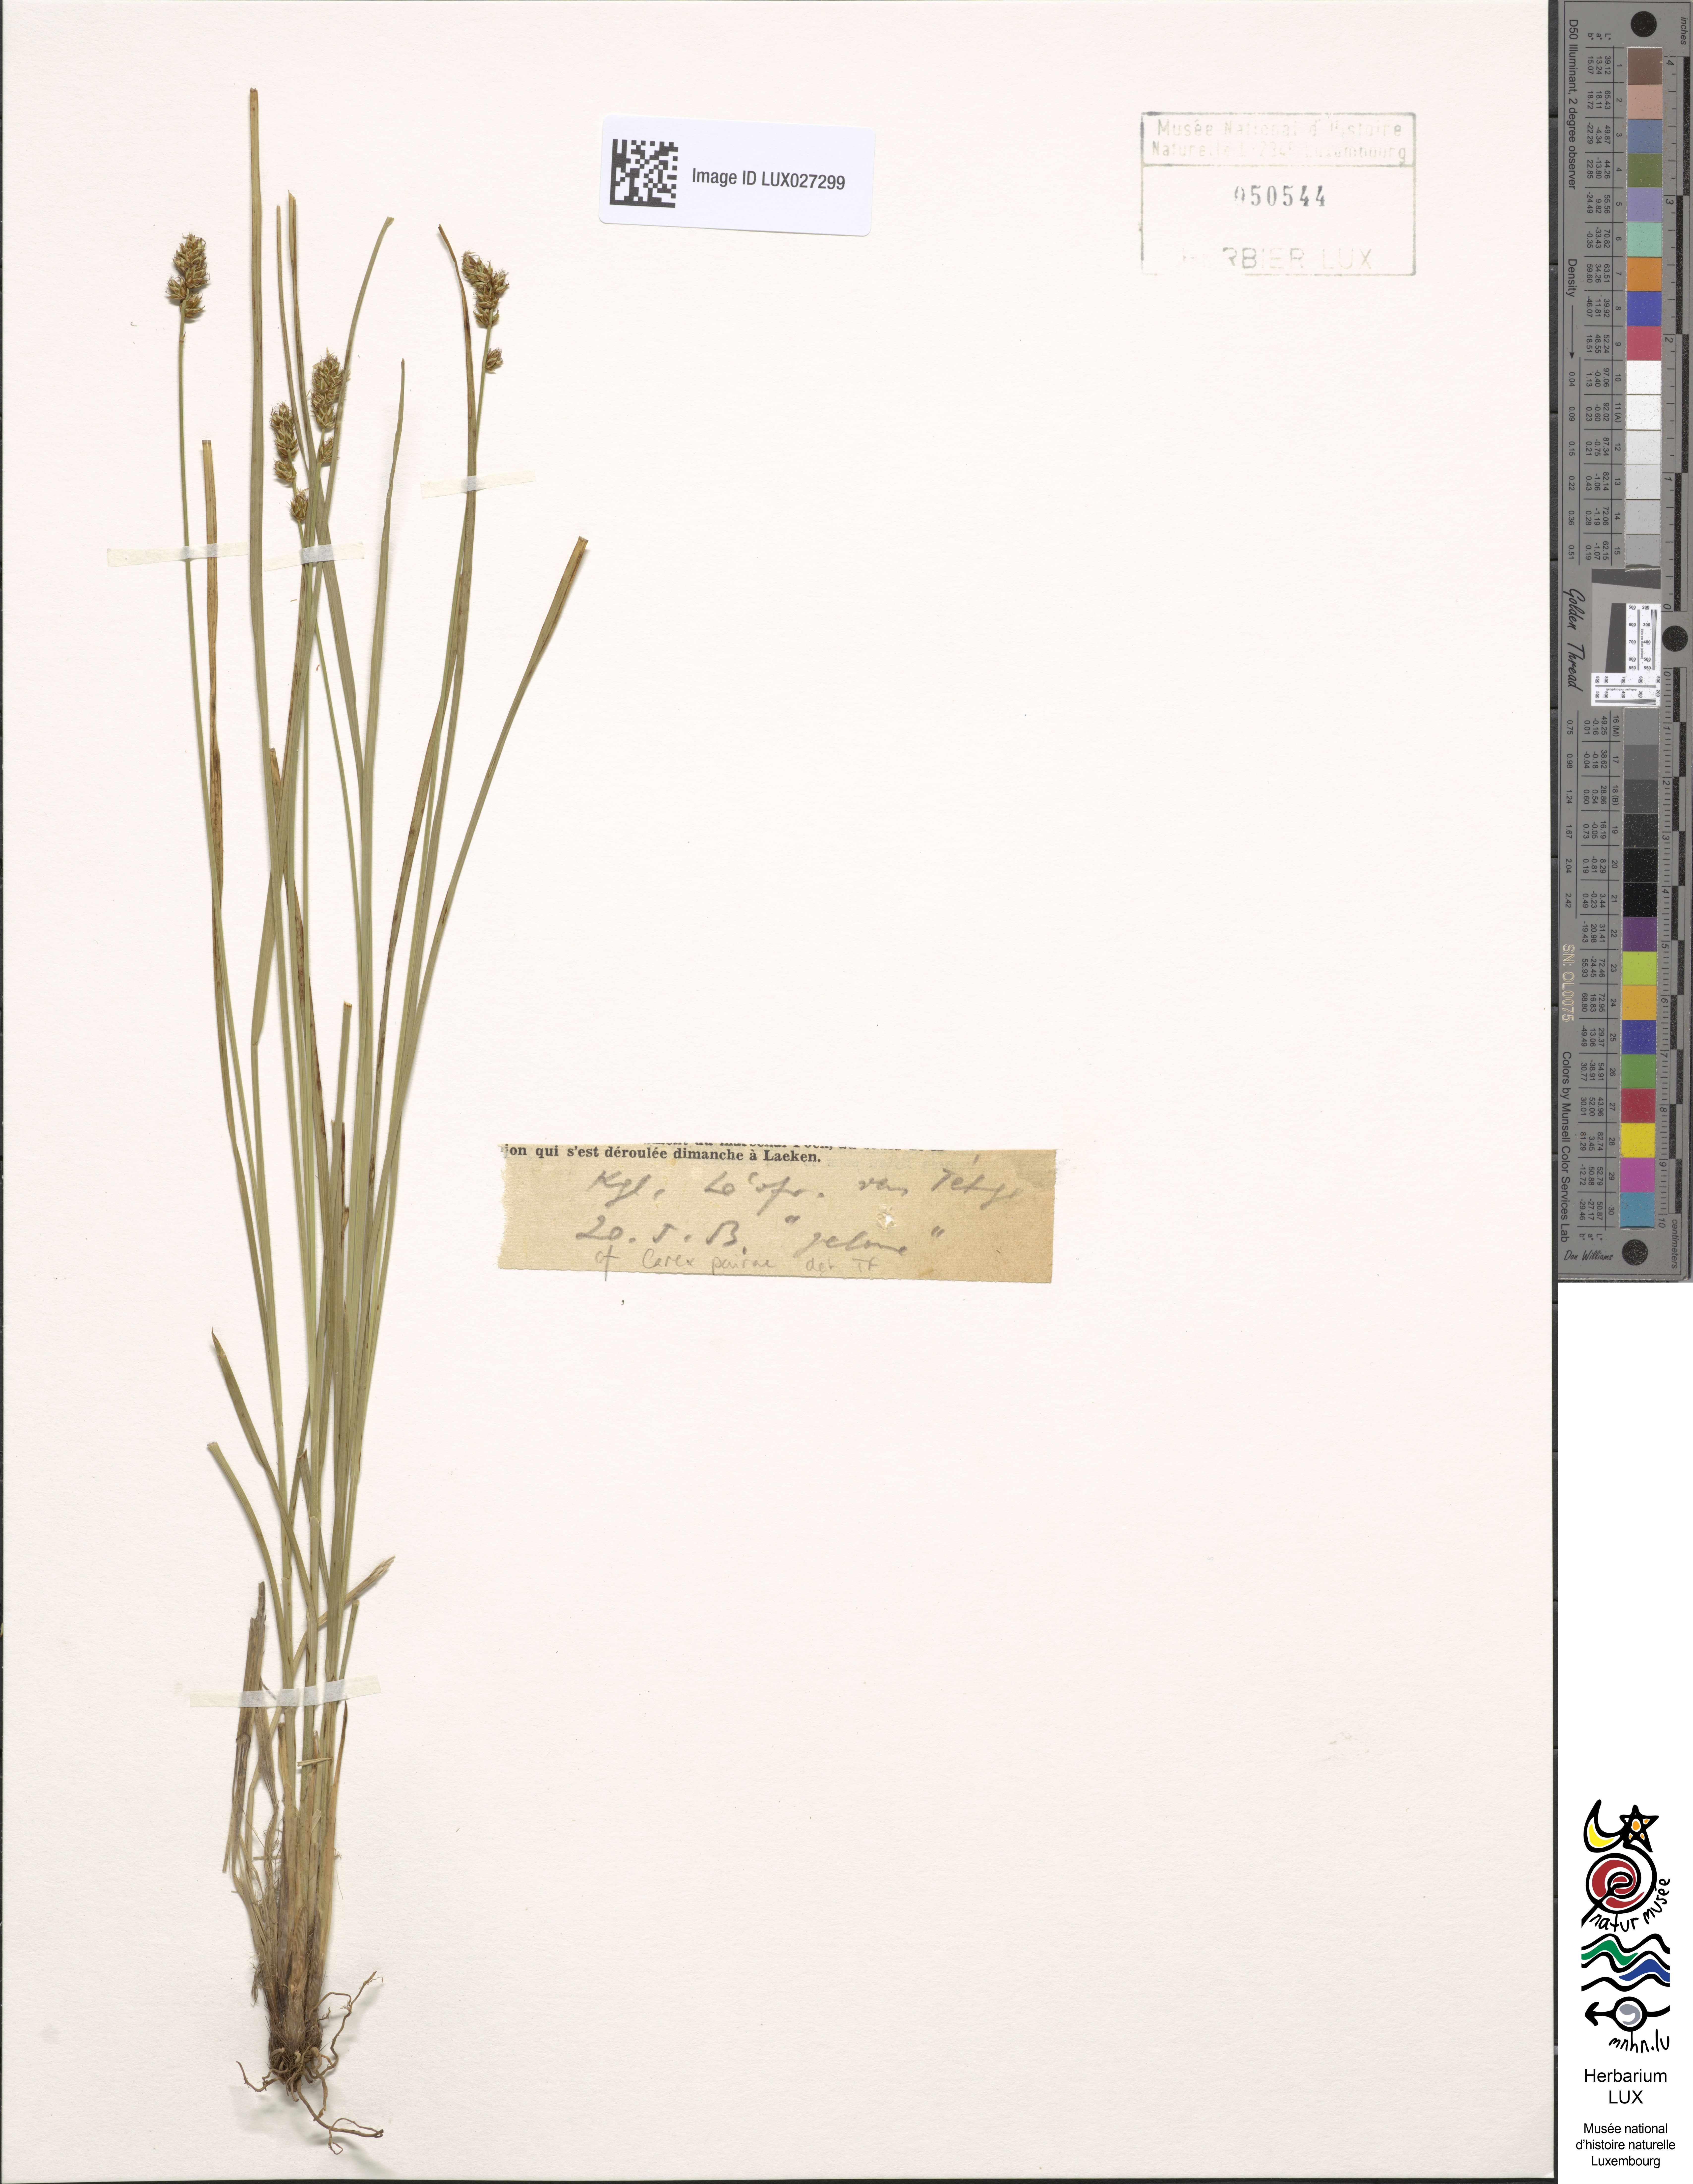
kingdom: Plantae
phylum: Tracheophyta
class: Liliopsida
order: Poales
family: Cyperaceae
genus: Carex
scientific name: Carex pairae
